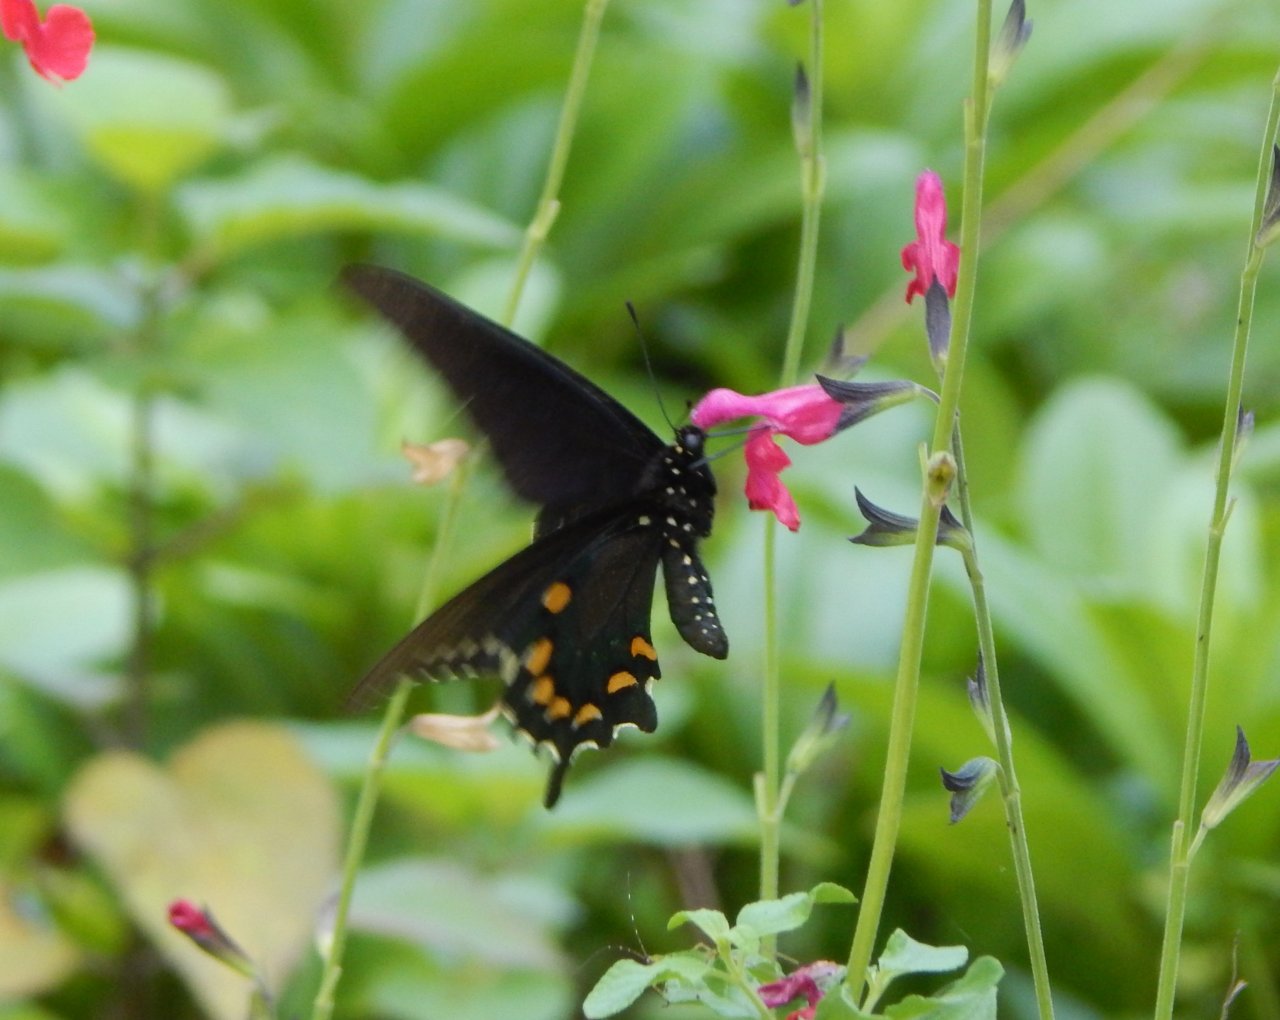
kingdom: Animalia
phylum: Arthropoda
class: Insecta
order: Lepidoptera
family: Papilionidae
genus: Battus
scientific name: Battus philenor
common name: Pipevine Swallowtail
